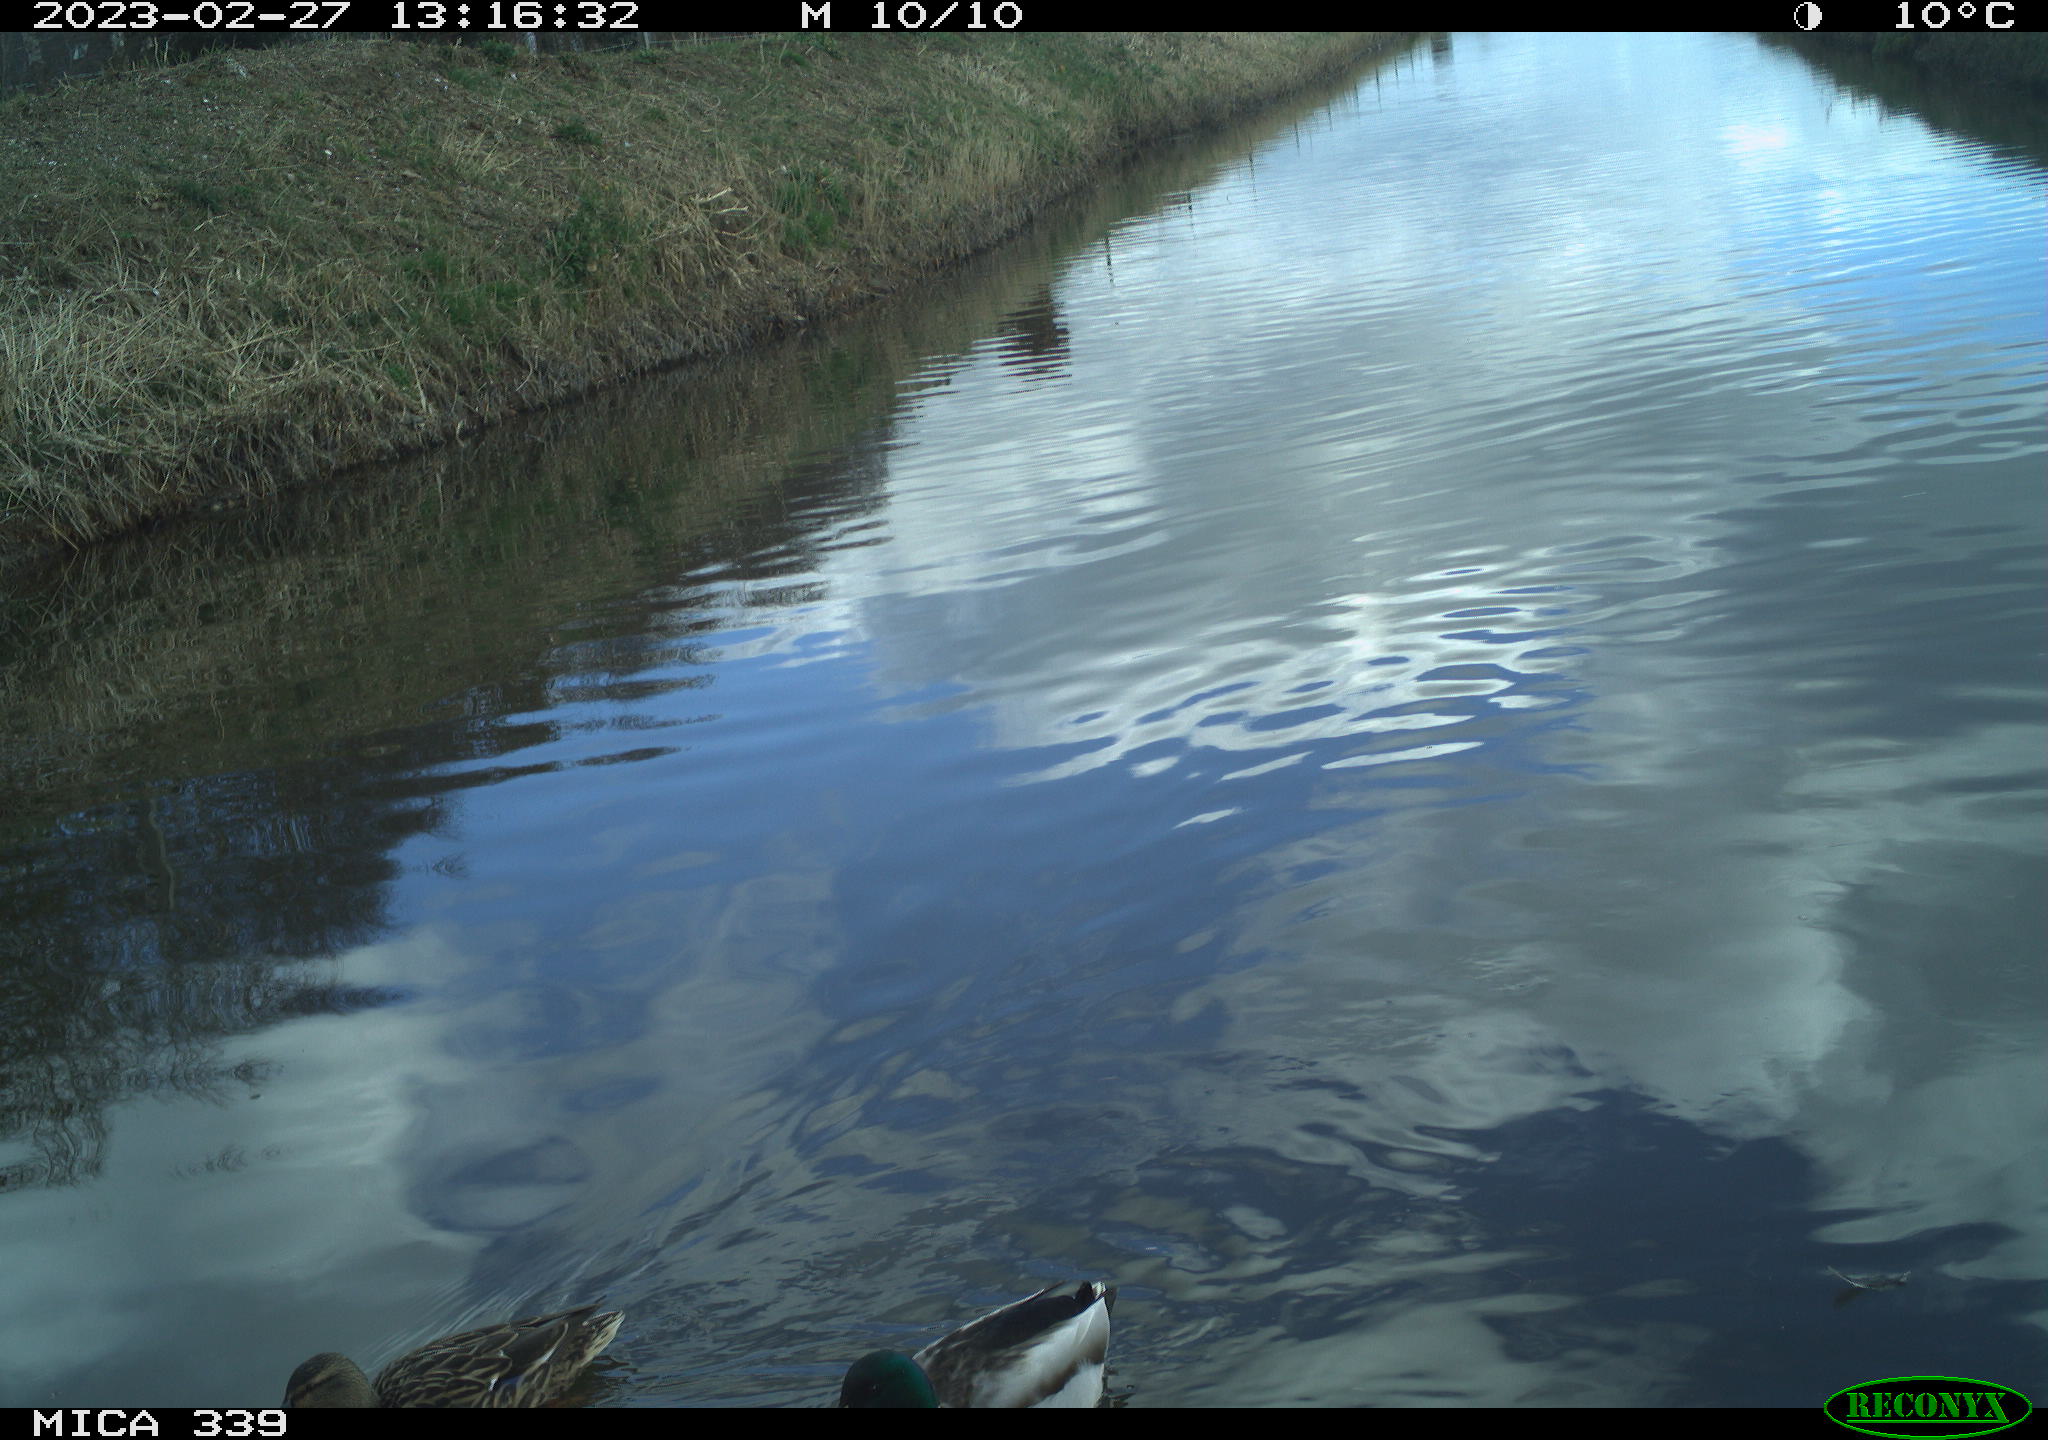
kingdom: Animalia
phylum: Chordata
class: Aves
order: Anseriformes
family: Anatidae
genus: Anas
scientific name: Anas
